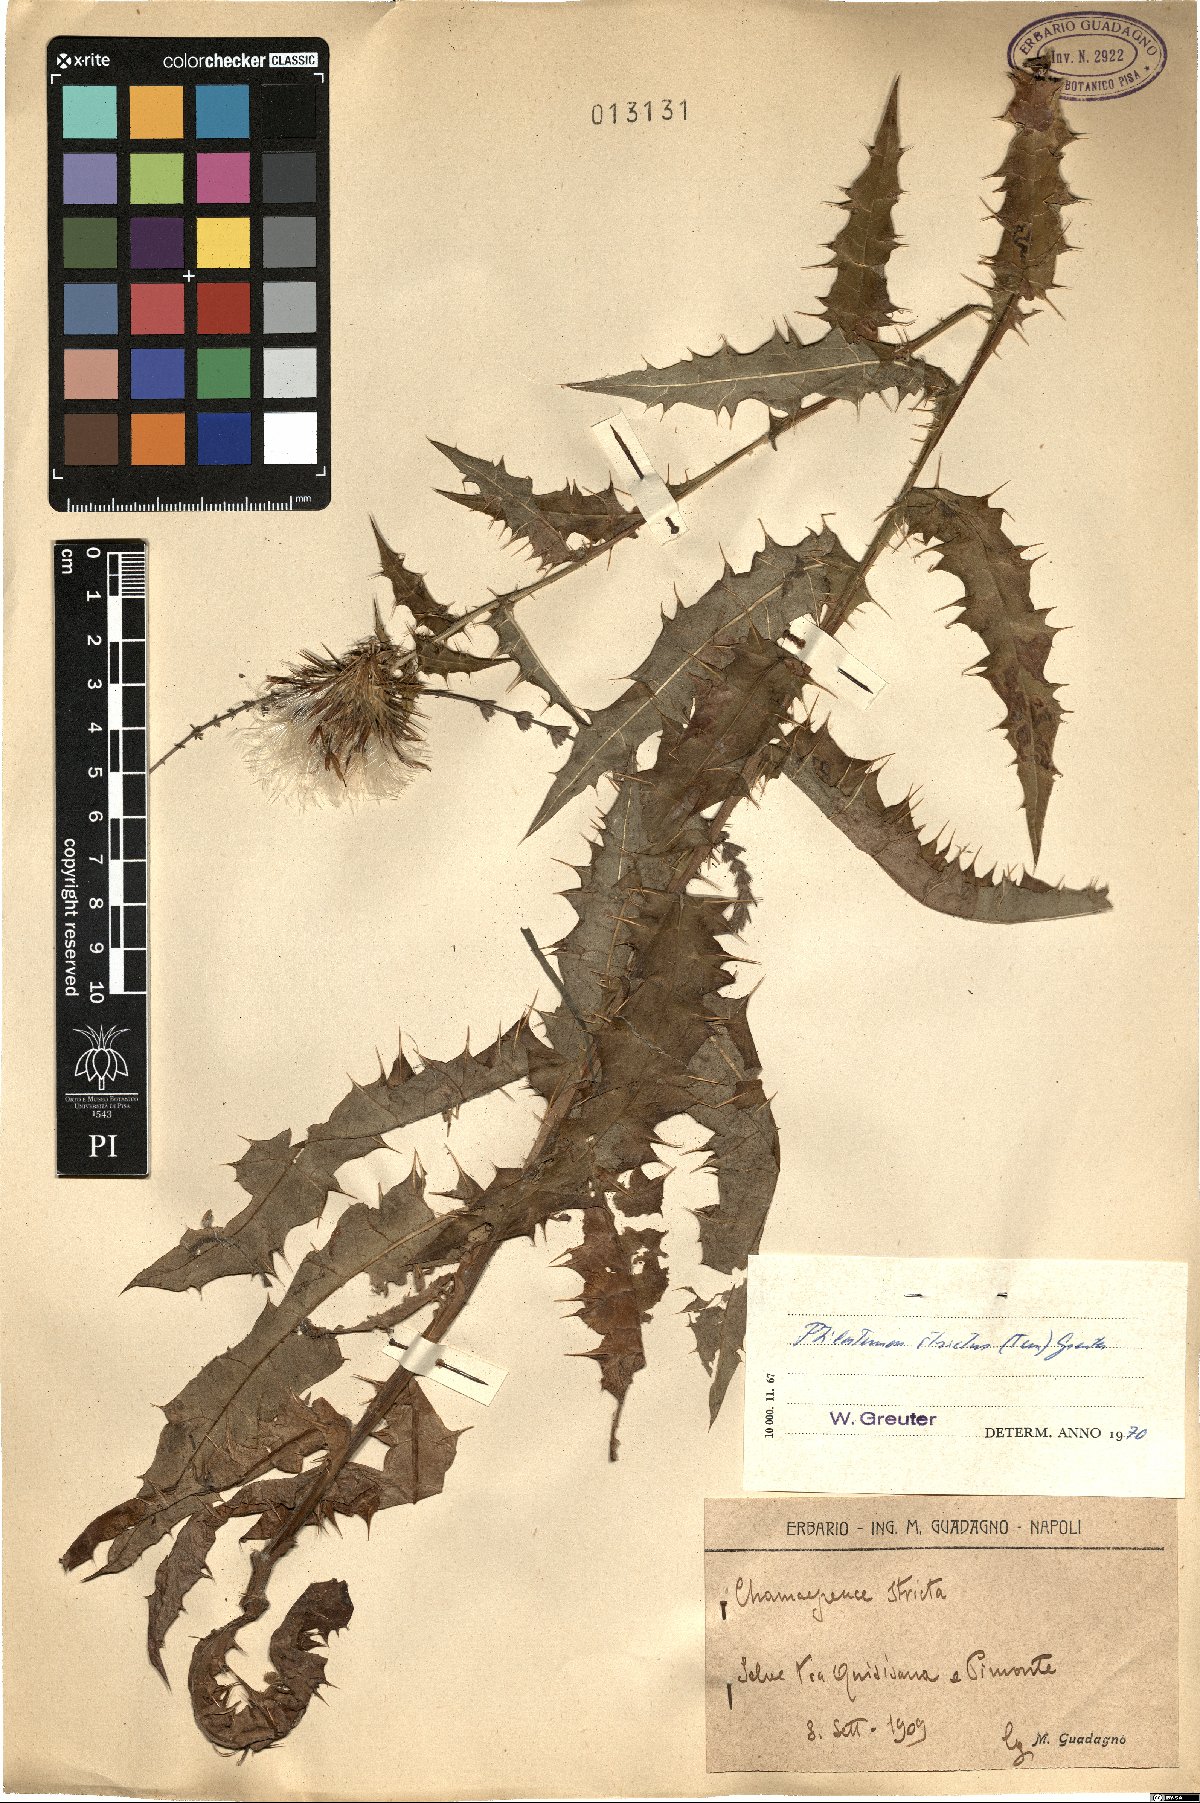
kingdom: Plantae
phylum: Tracheophyta
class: Magnoliopsida
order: Asterales
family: Asteraceae
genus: Ptilostemon
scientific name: Ptilostemon strictus
